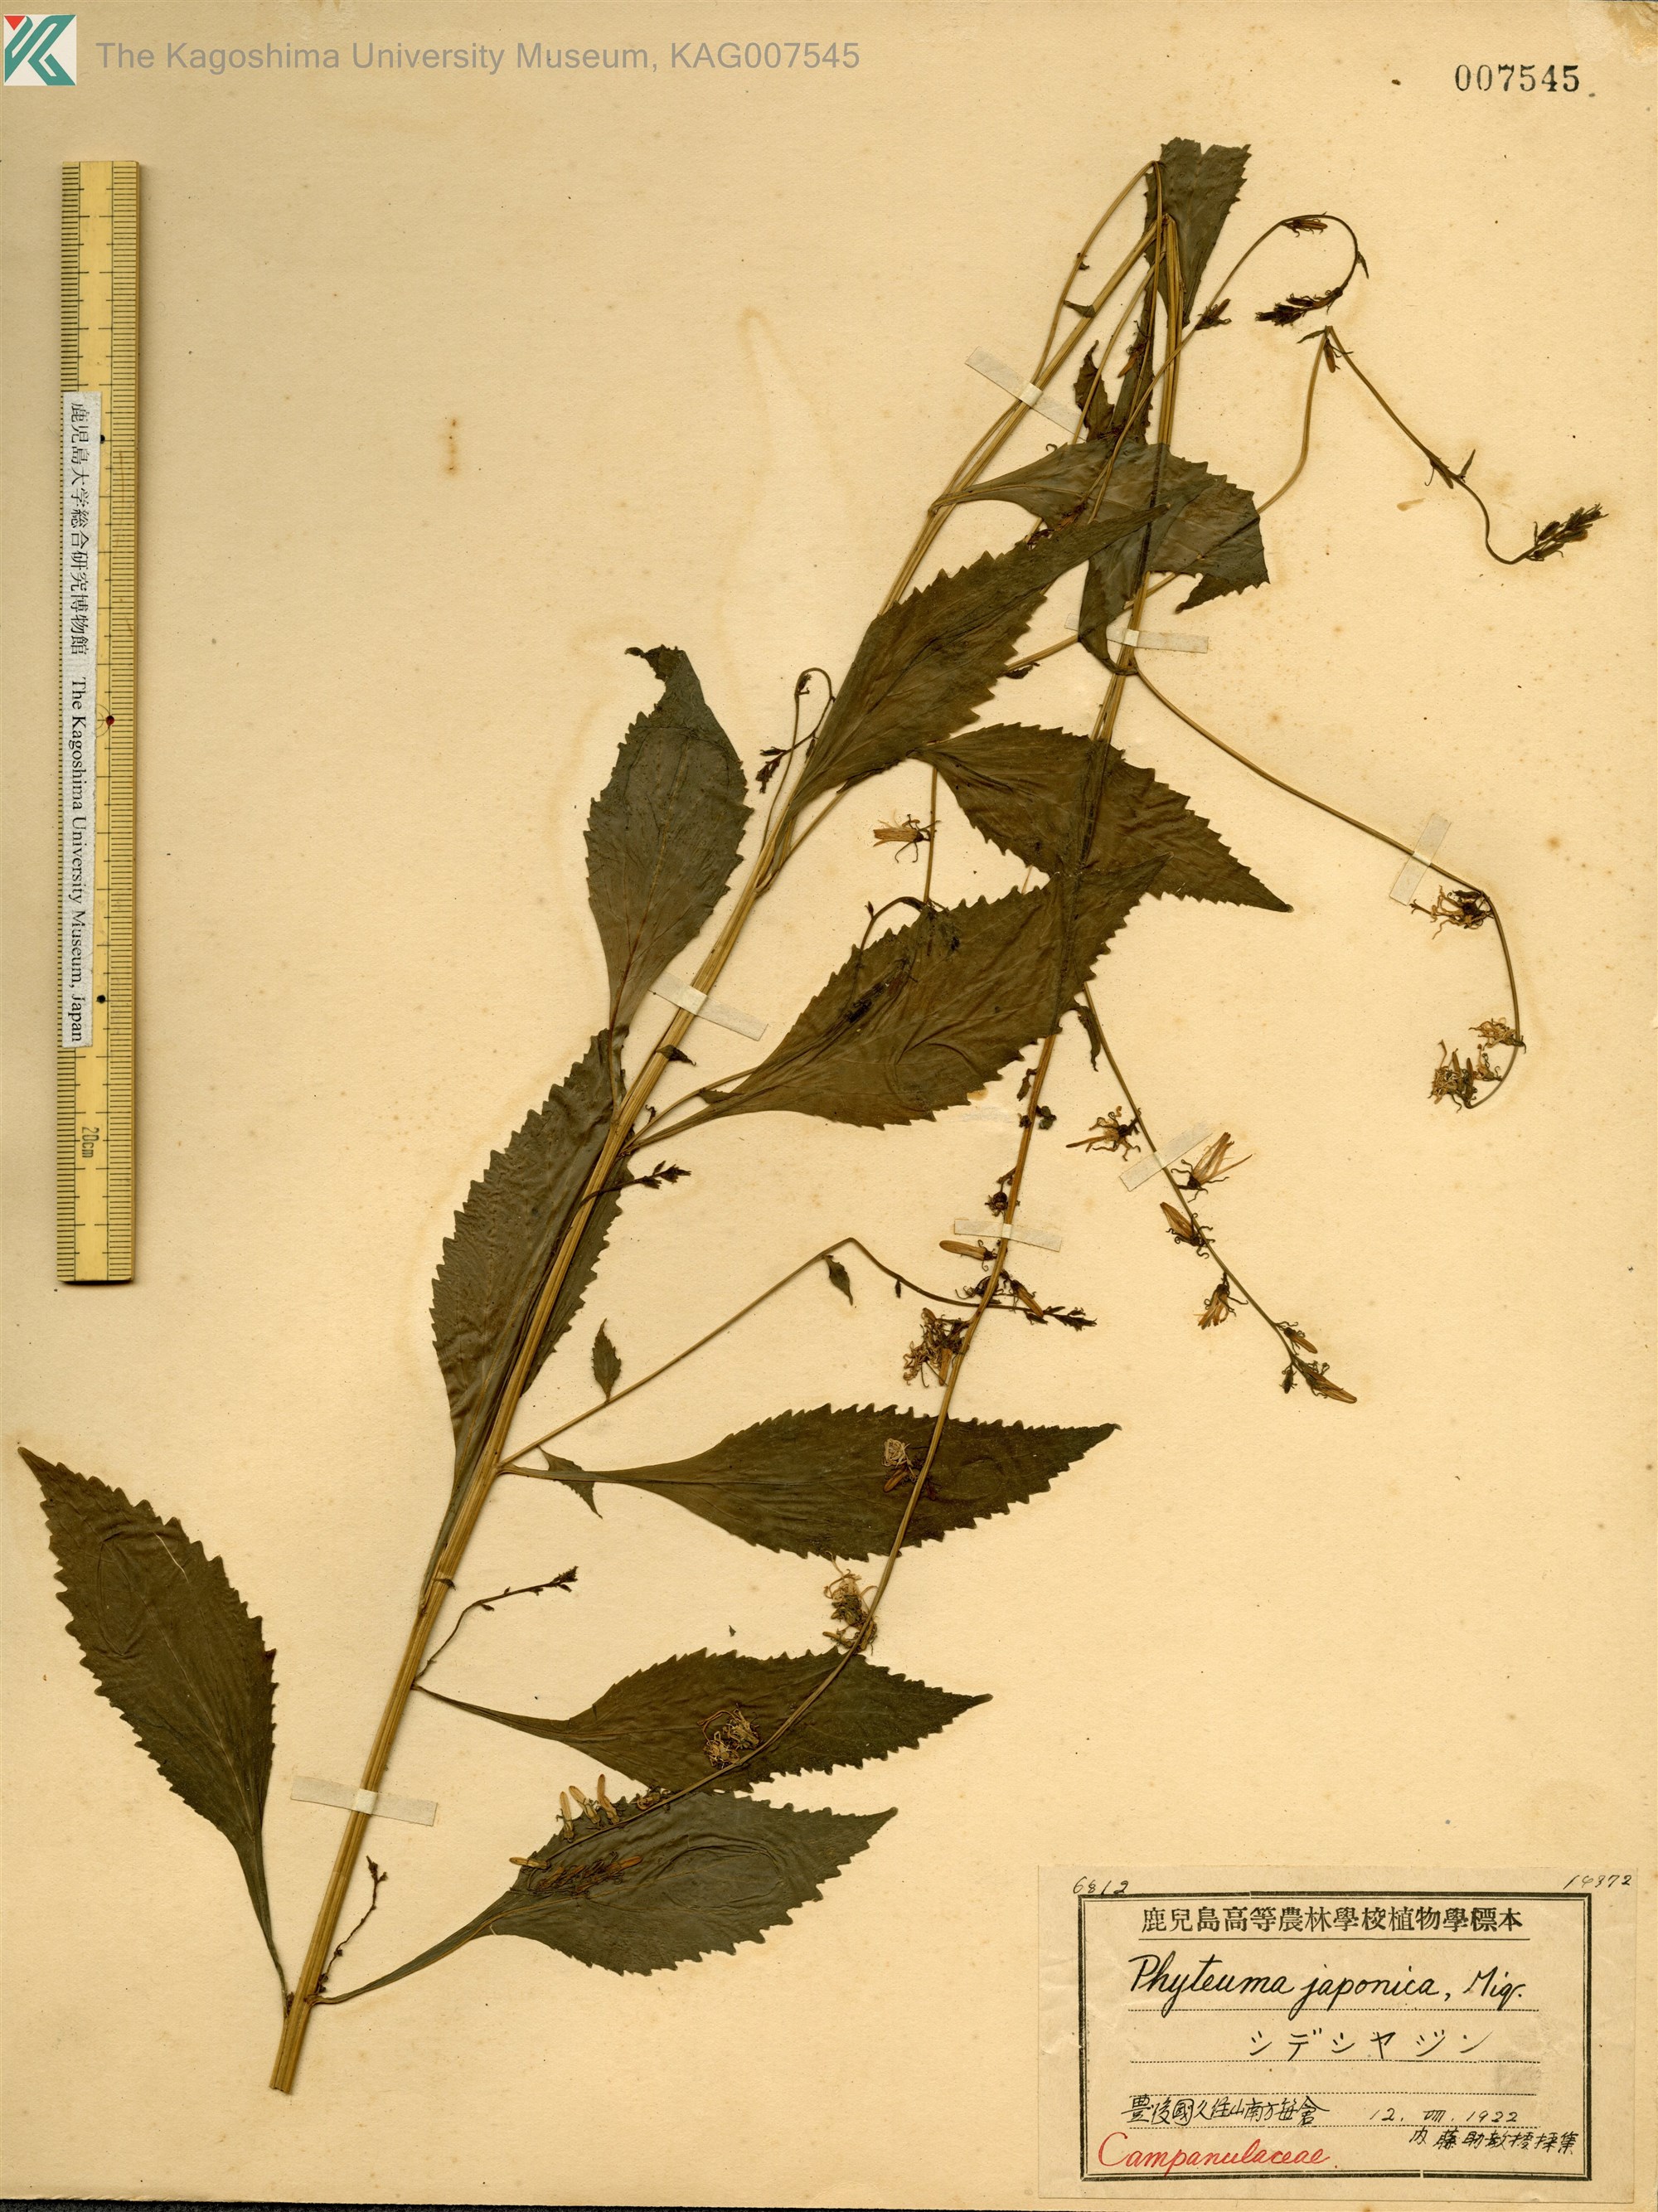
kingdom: Plantae
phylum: Tracheophyta
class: Magnoliopsida
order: Asterales
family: Campanulaceae
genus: Asyneuma
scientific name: Asyneuma japonicum
